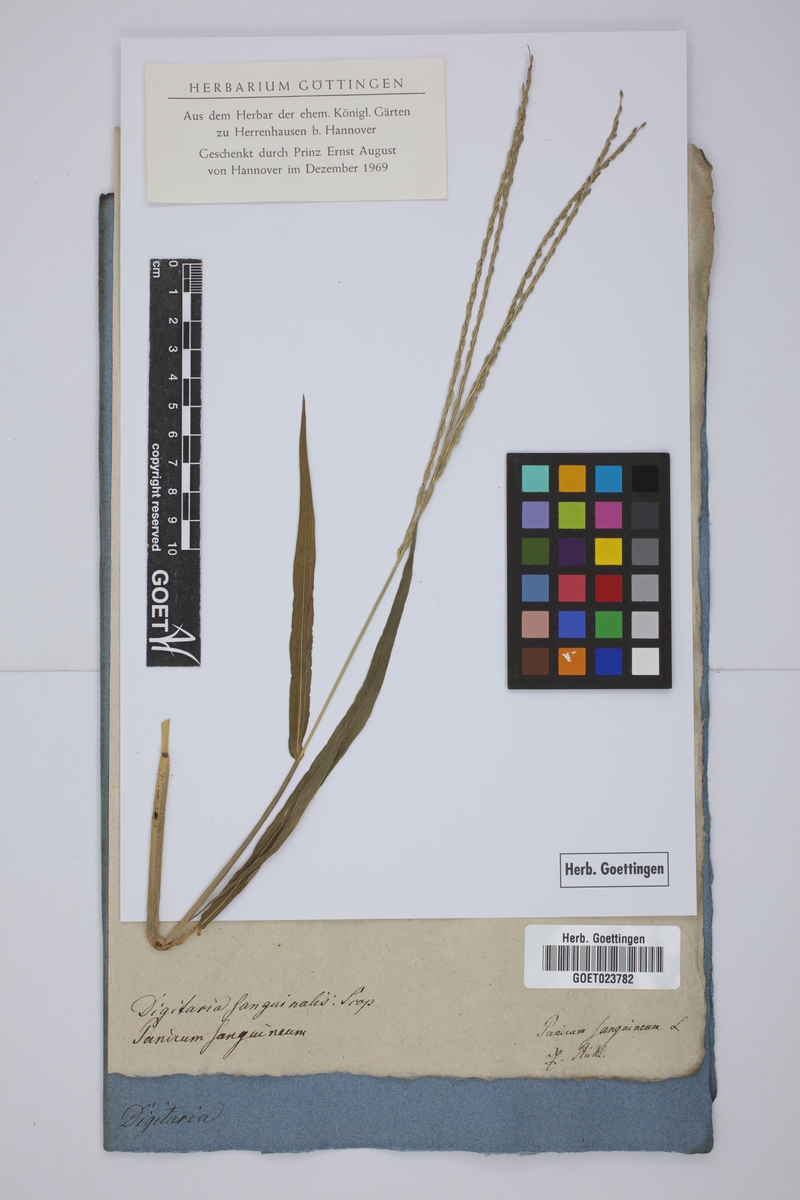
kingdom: Plantae
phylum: Tracheophyta
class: Liliopsida
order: Poales
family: Poaceae
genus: Digitaria
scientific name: Digitaria sanguinalis
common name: Hairy crabgrass
